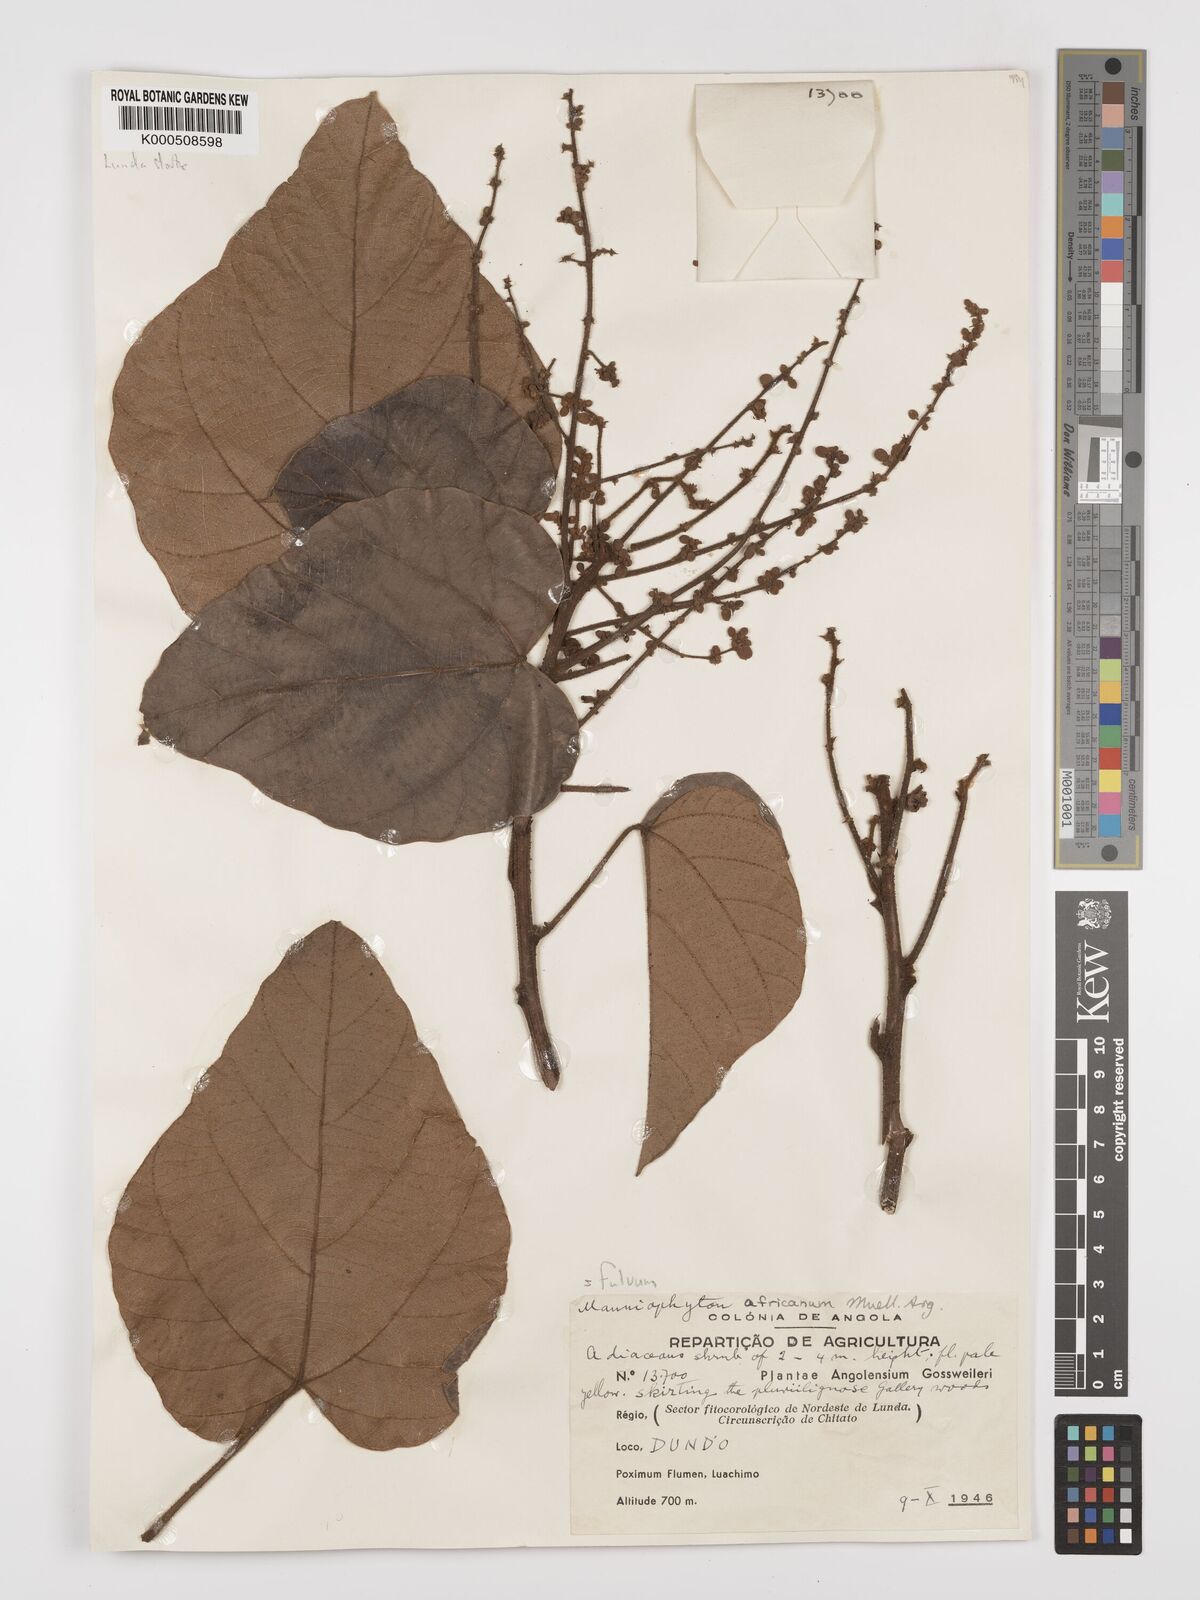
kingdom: Plantae
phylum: Tracheophyta
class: Magnoliopsida
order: Malpighiales
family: Euphorbiaceae
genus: Manniophyton
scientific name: Manniophyton
